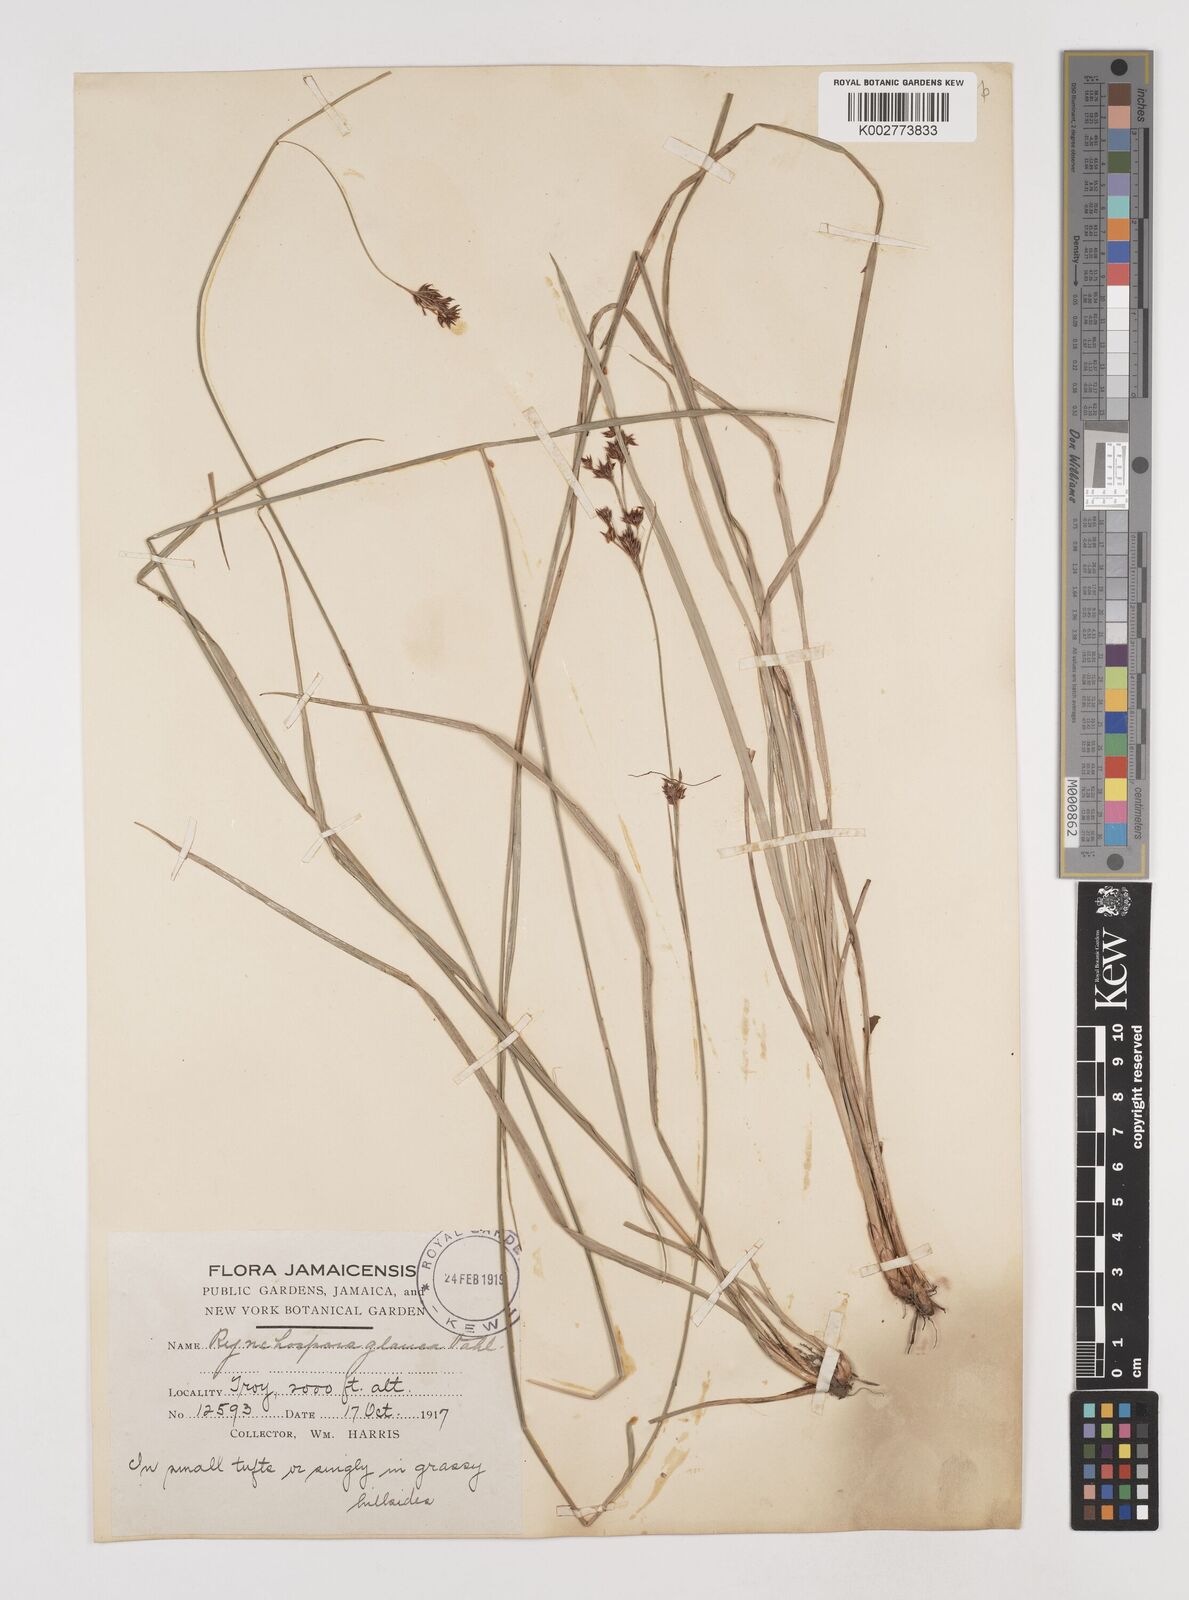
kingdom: Plantae
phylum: Tracheophyta
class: Liliopsida
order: Poales
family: Cyperaceae
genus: Rhynchospora
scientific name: Rhynchospora rugosa
